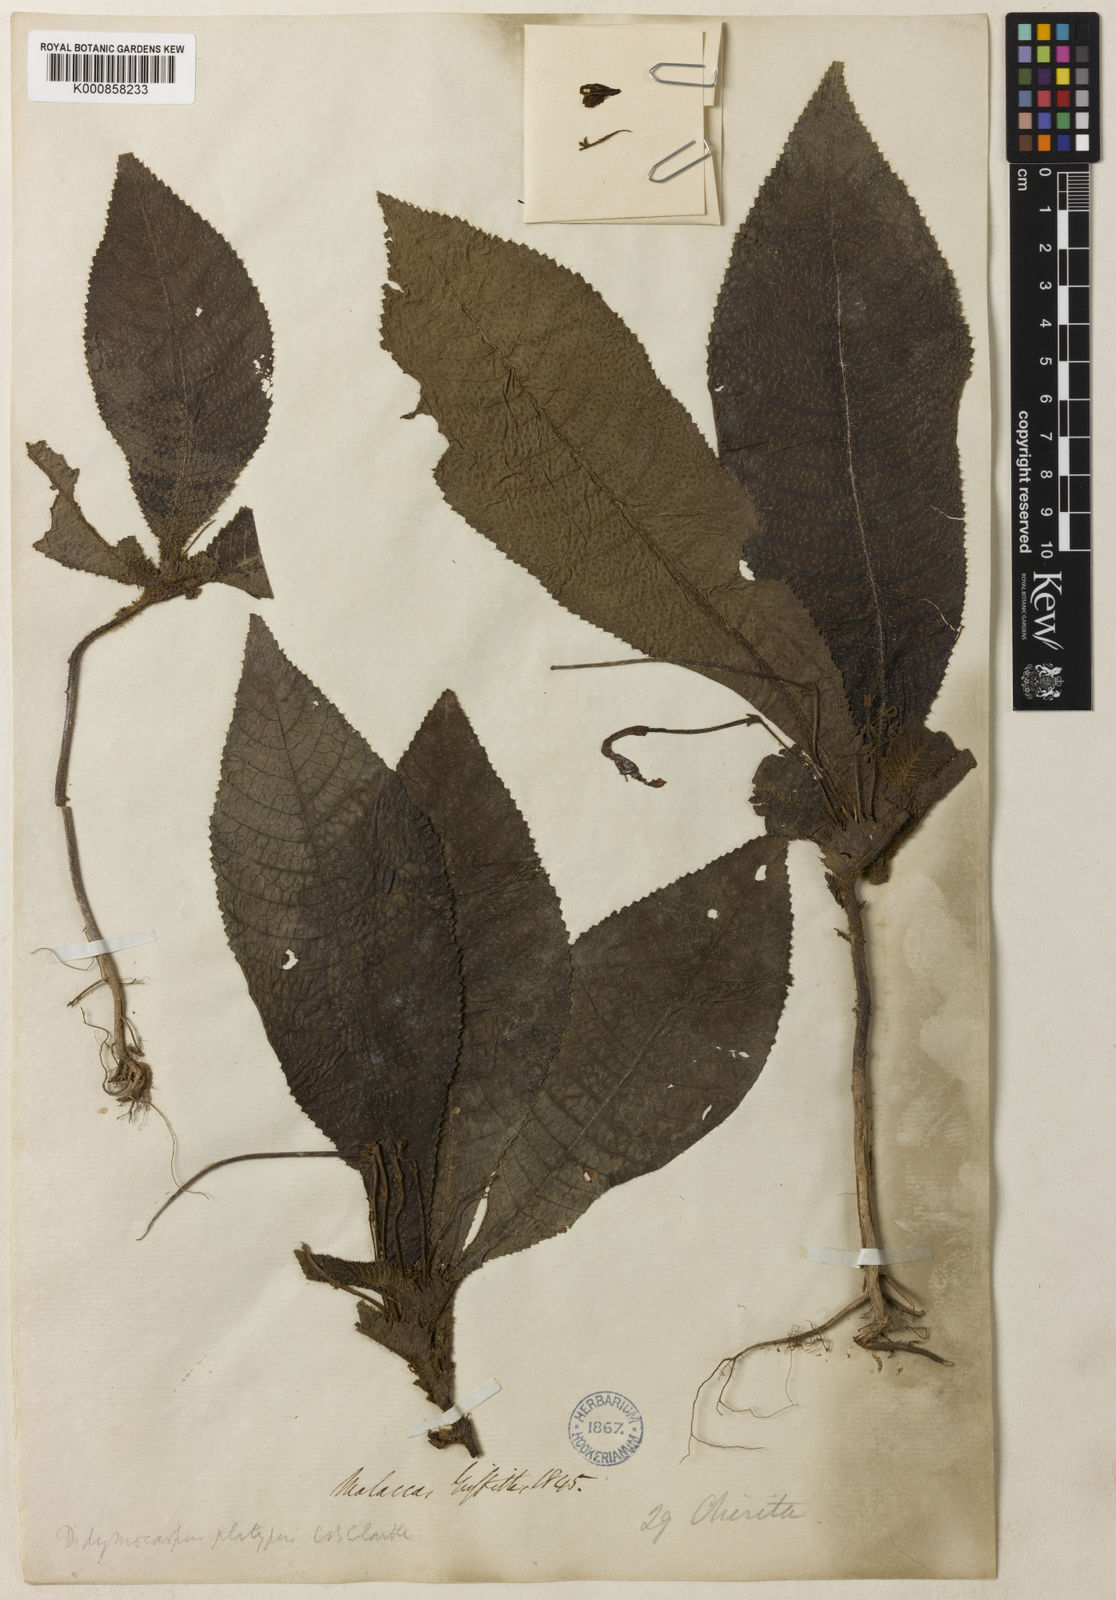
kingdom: Plantae
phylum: Tracheophyta
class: Magnoliopsida
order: Lamiales
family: Gesneriaceae
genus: Codonoboea
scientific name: Codonoboea platypus
